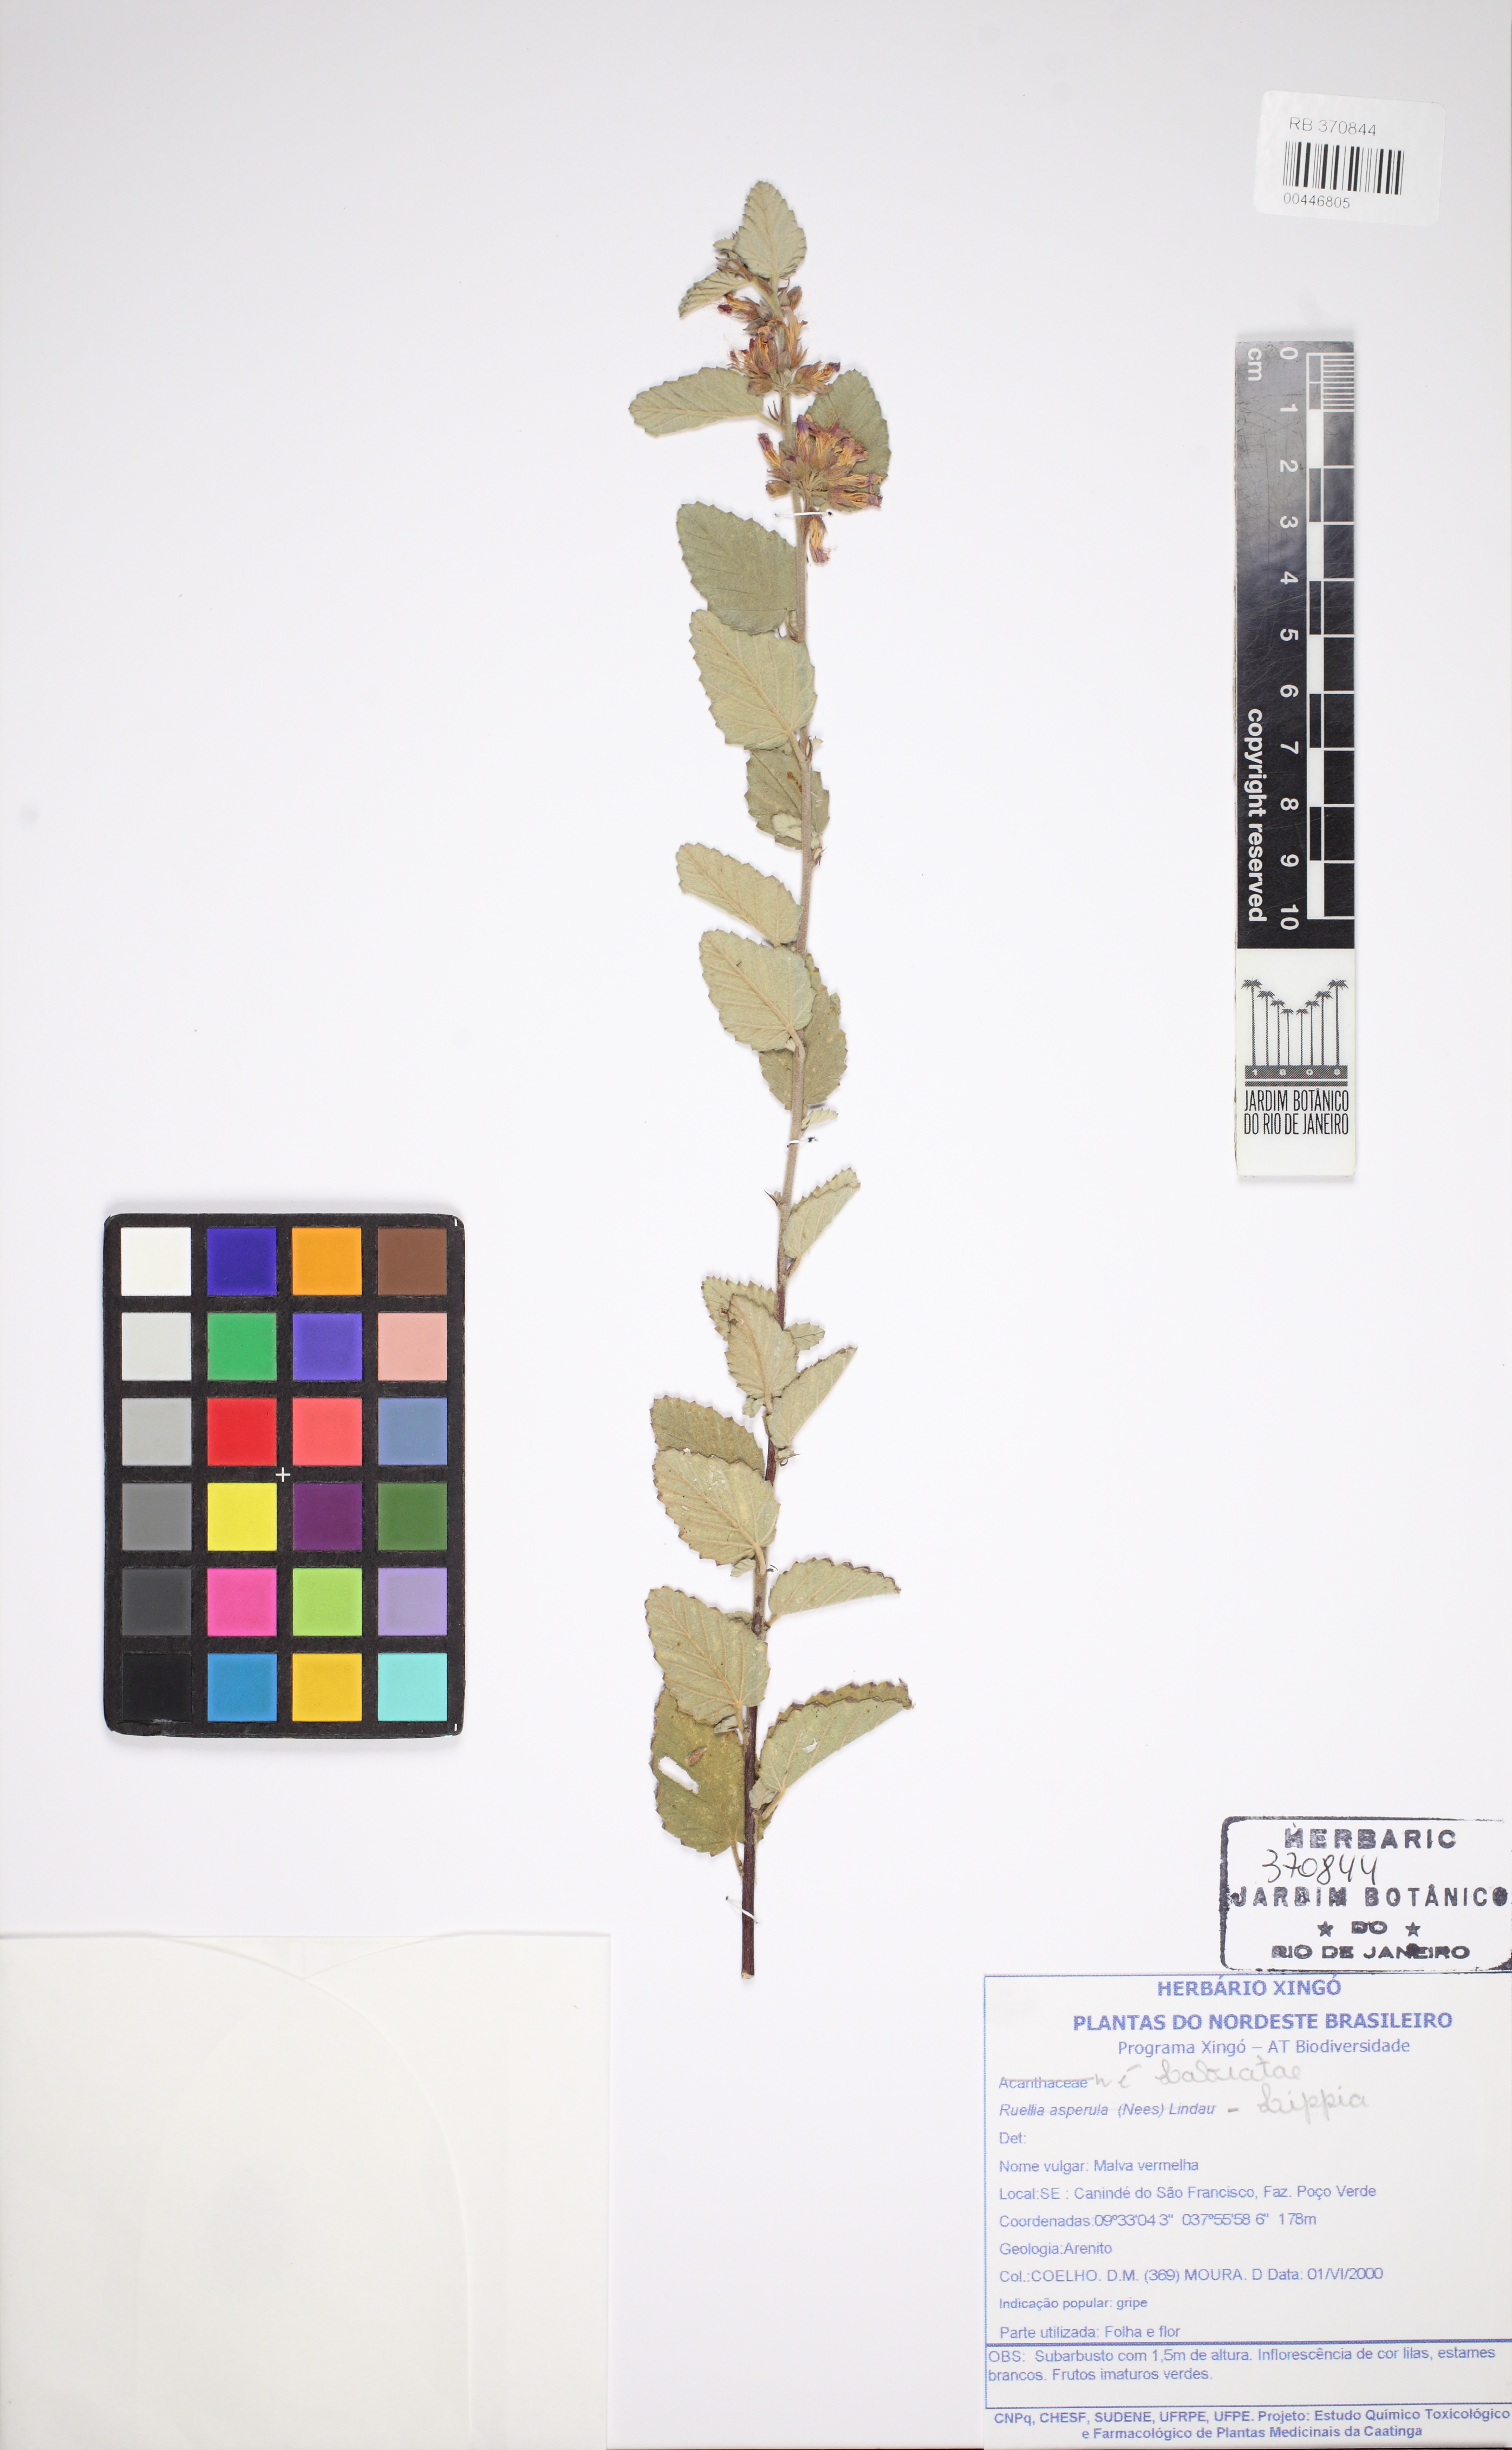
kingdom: Plantae
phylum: Tracheophyta
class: Magnoliopsida
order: Malvales
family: Malvaceae
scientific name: Malvaceae
